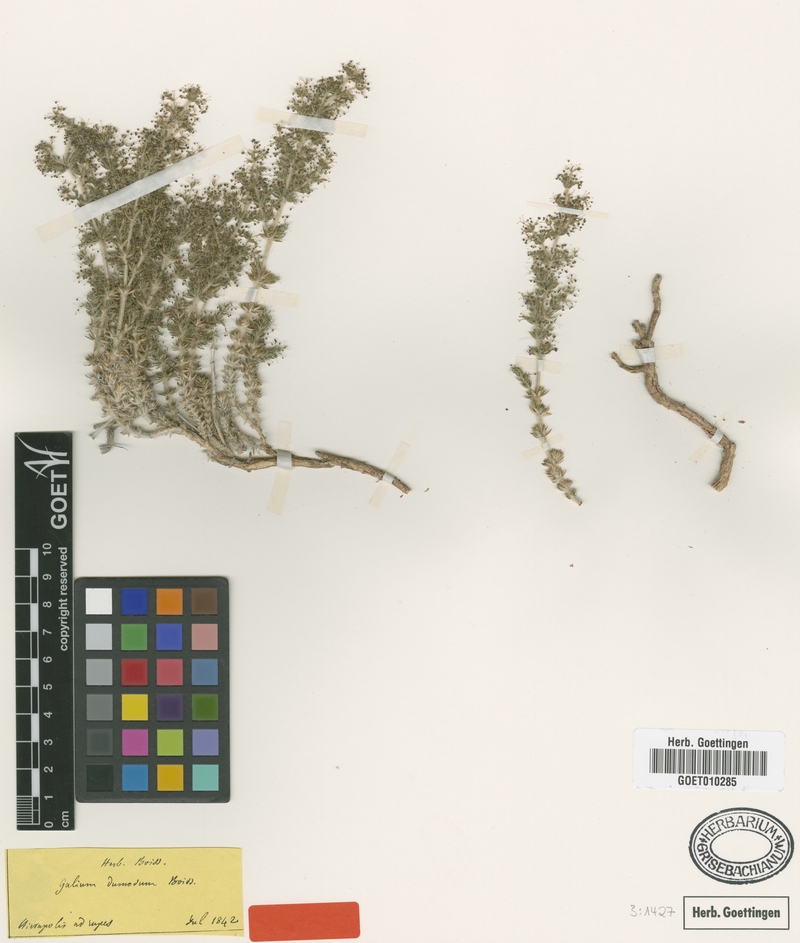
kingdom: Plantae
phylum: Tracheophyta
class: Magnoliopsida
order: Gentianales
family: Rubiaceae
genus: Galium
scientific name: Galium dumosum
